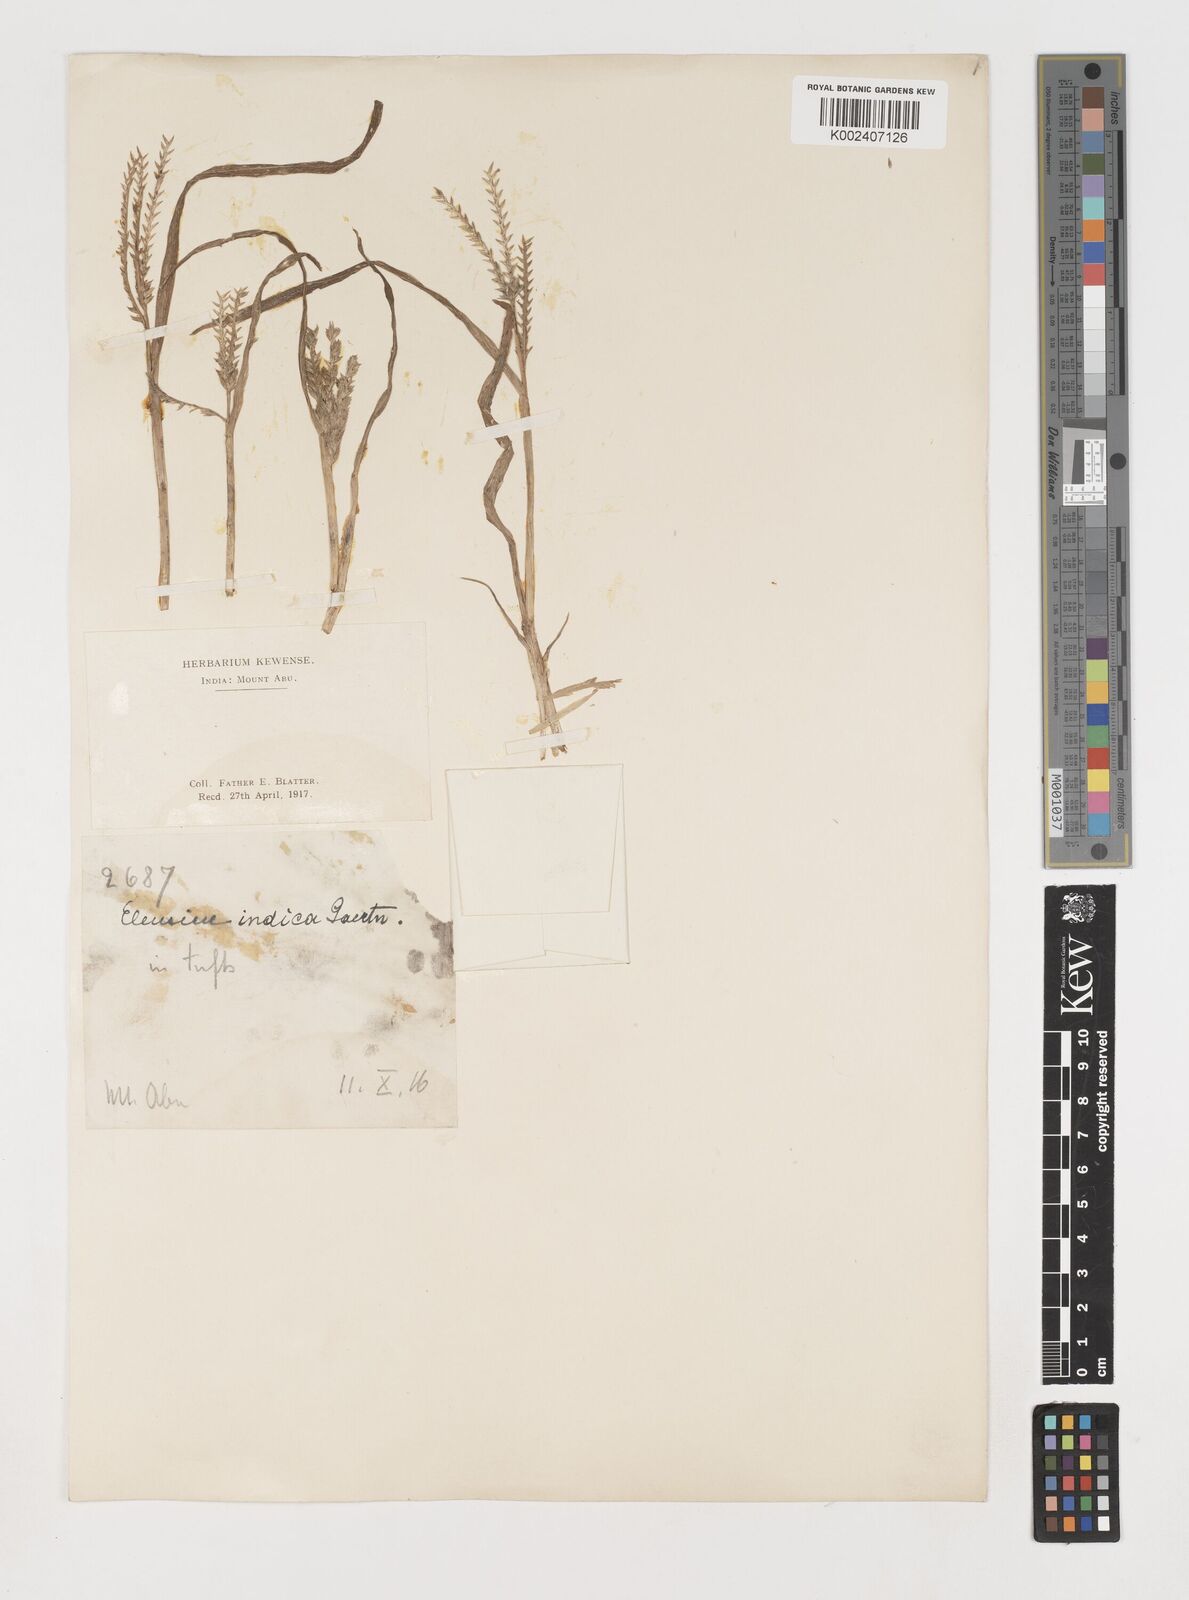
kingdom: Plantae
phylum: Tracheophyta
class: Liliopsida
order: Poales
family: Poaceae
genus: Eleusine
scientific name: Eleusine indica
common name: Yard-grass
